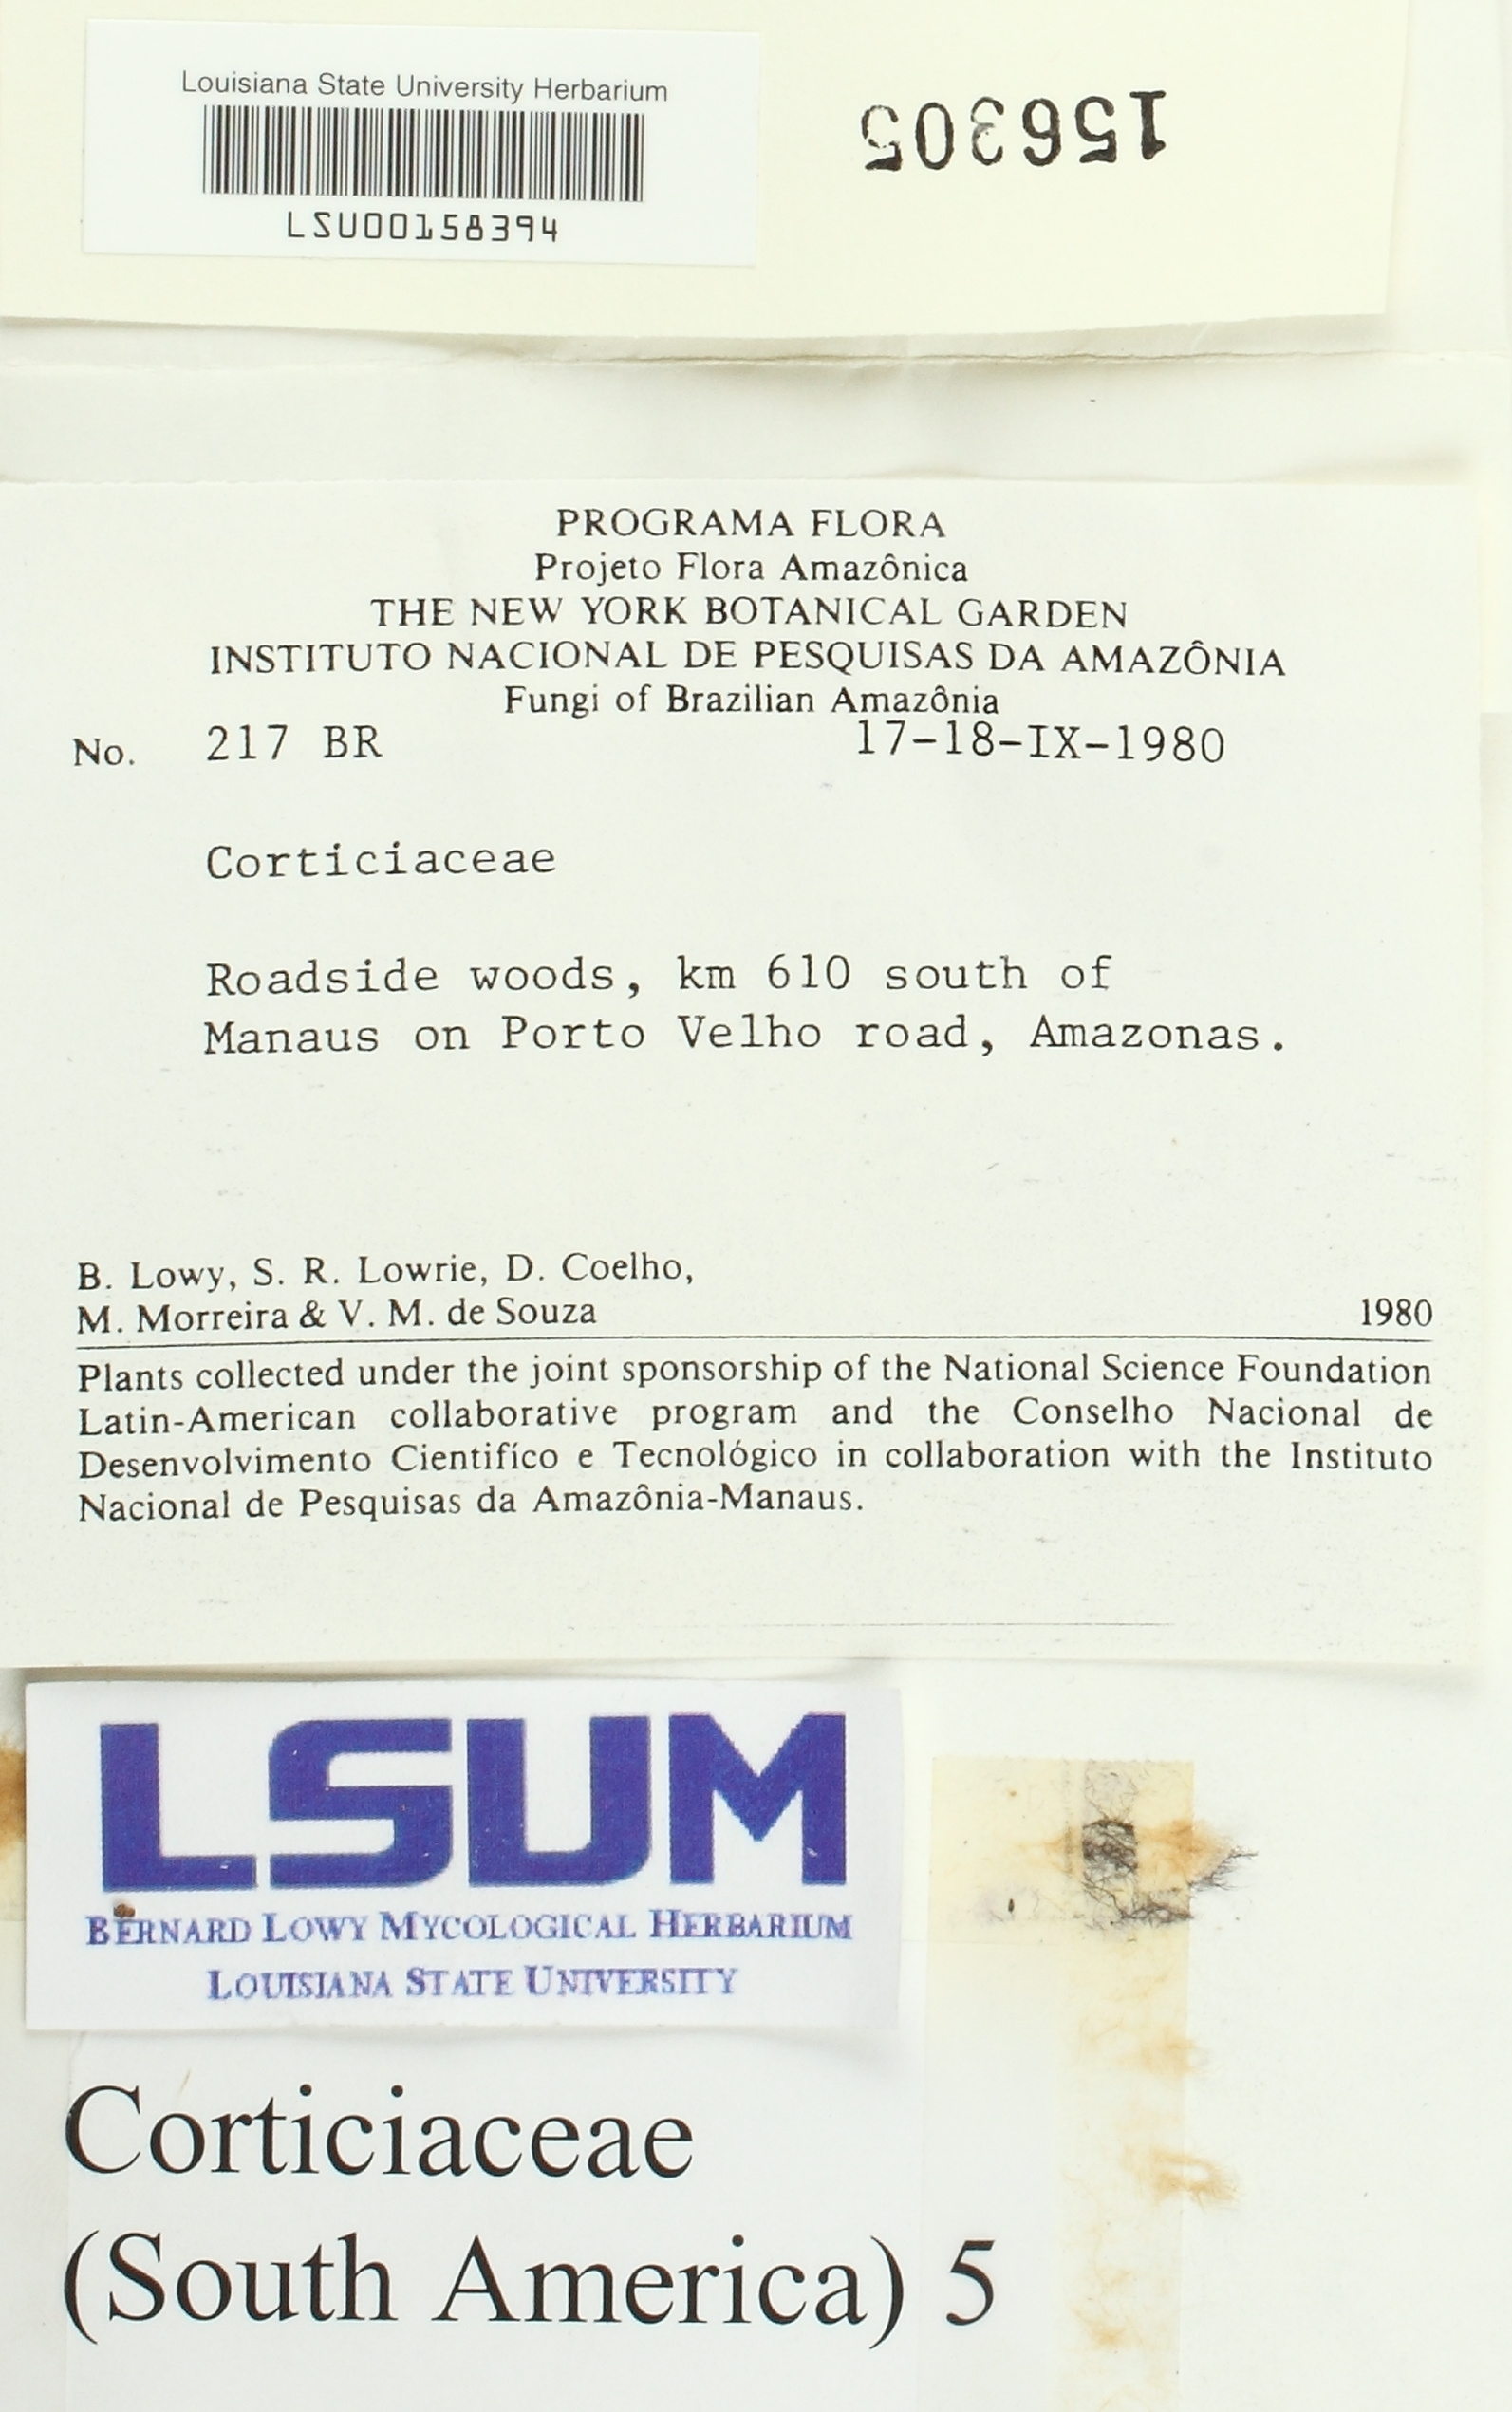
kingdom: Fungi
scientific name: Fungi
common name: Fungi
